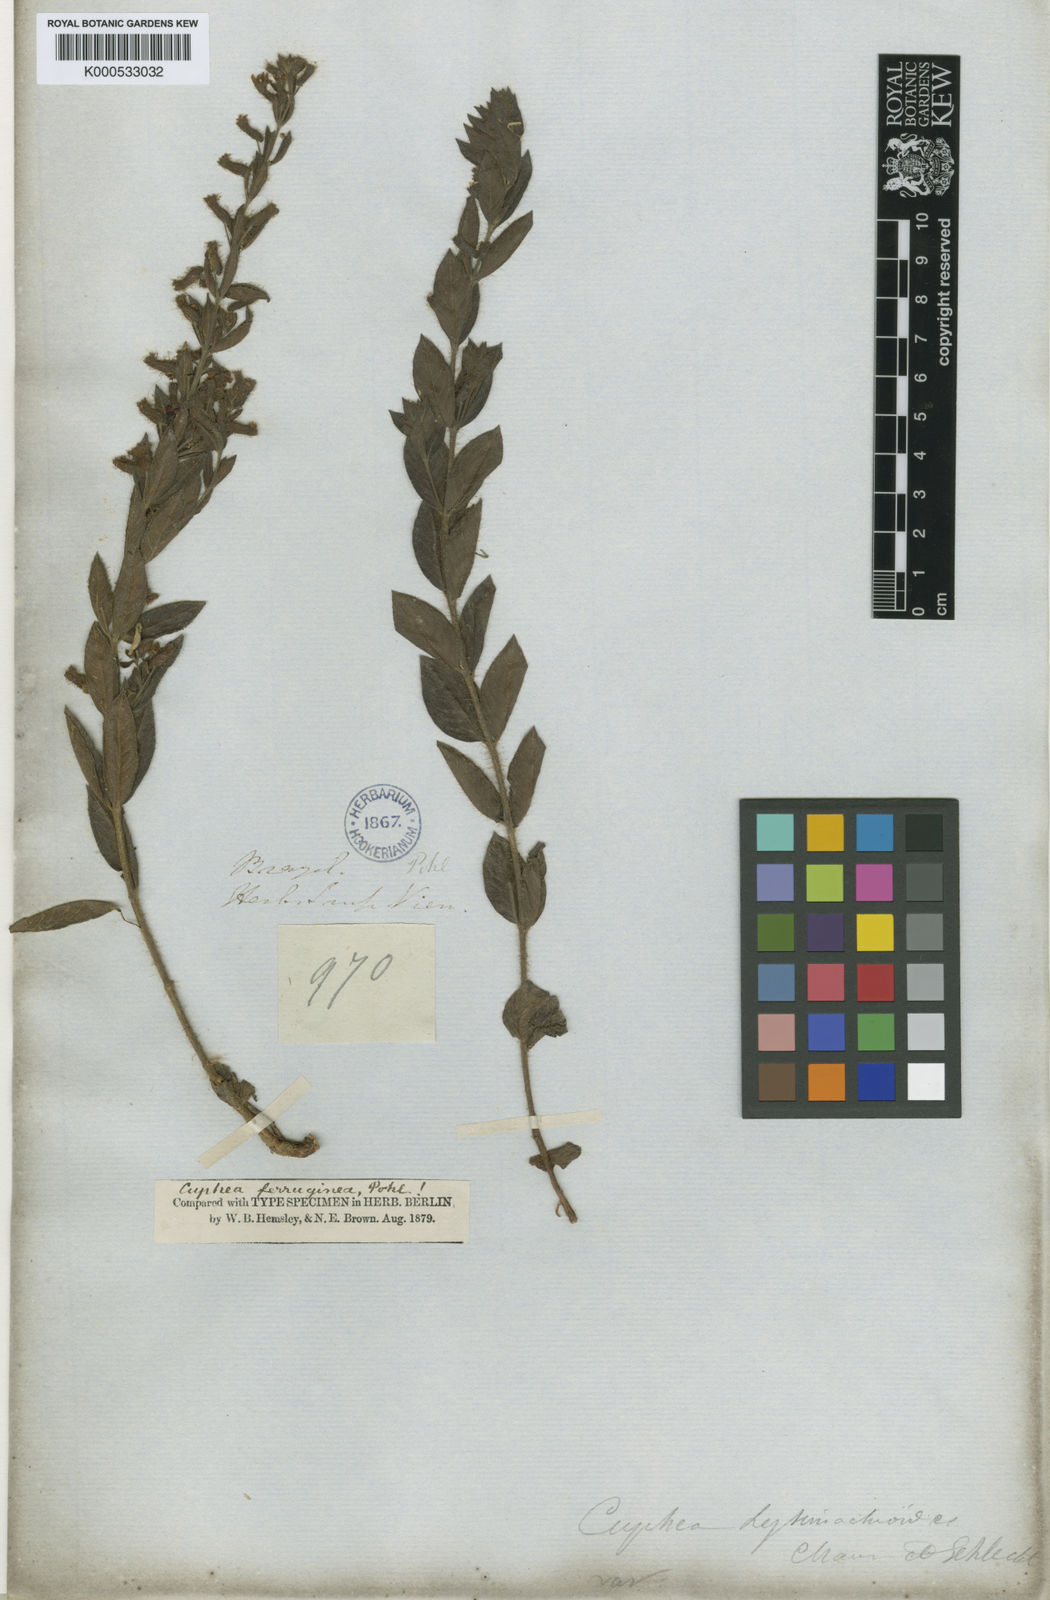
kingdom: Plantae
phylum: Tracheophyta
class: Magnoliopsida
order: Myrtales
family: Lythraceae
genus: Cuphea
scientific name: Cuphea ferruginea
